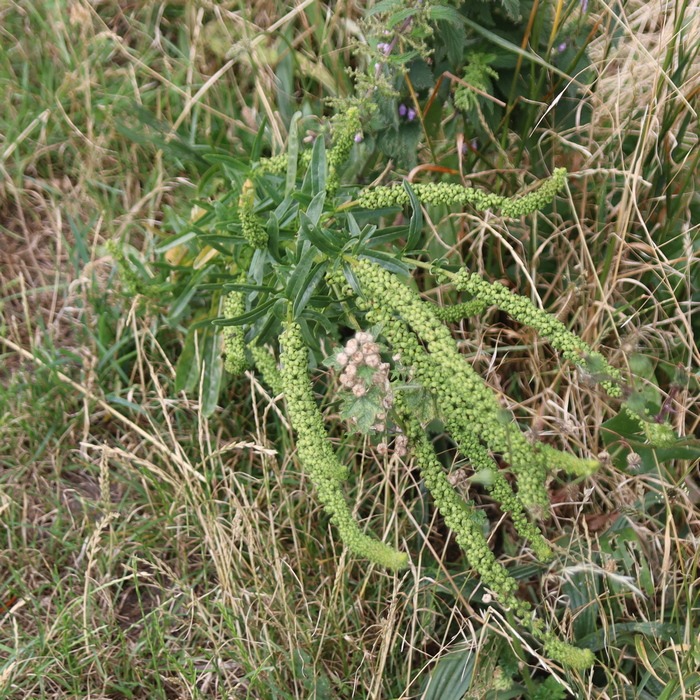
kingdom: Plantae
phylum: Tracheophyta
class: Magnoliopsida
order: Brassicales
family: Resedaceae
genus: Reseda
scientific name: Reseda luteola
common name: Farve-reseda
